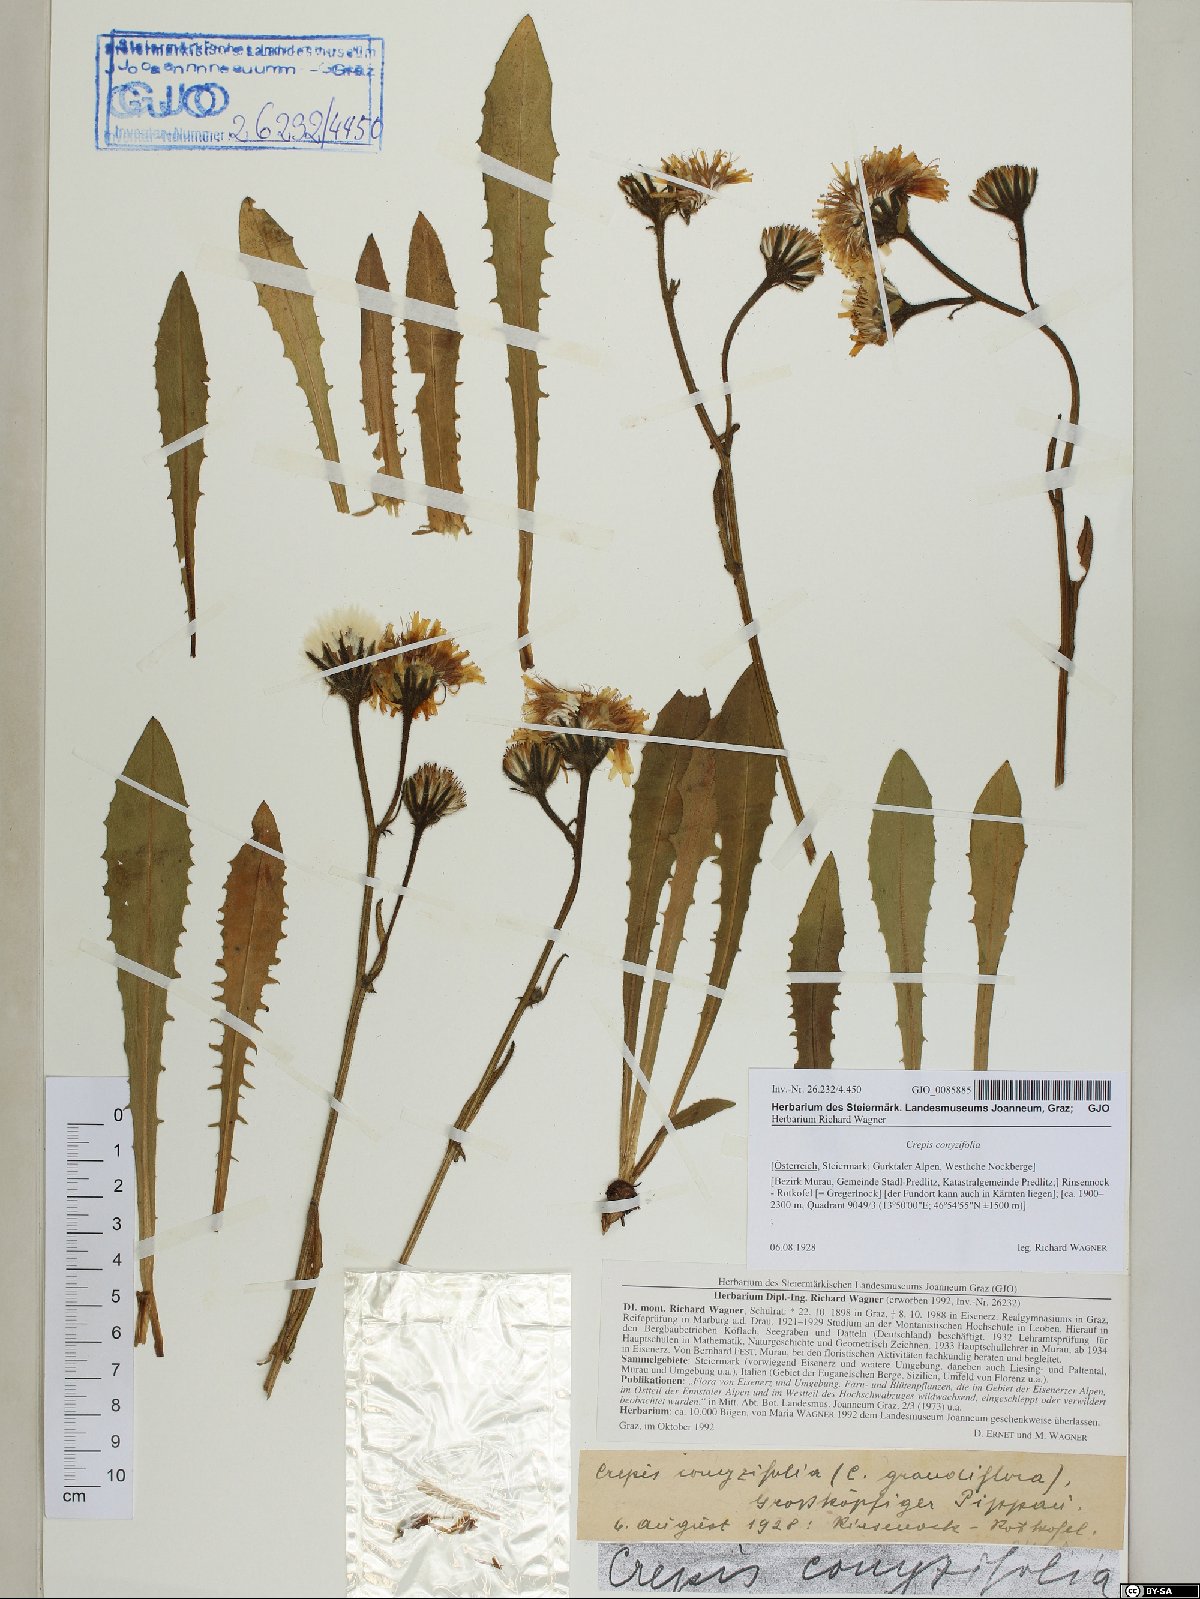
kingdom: Plantae
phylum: Tracheophyta
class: Magnoliopsida
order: Asterales
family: Asteraceae
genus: Crepis
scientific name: Crepis blattarioides
